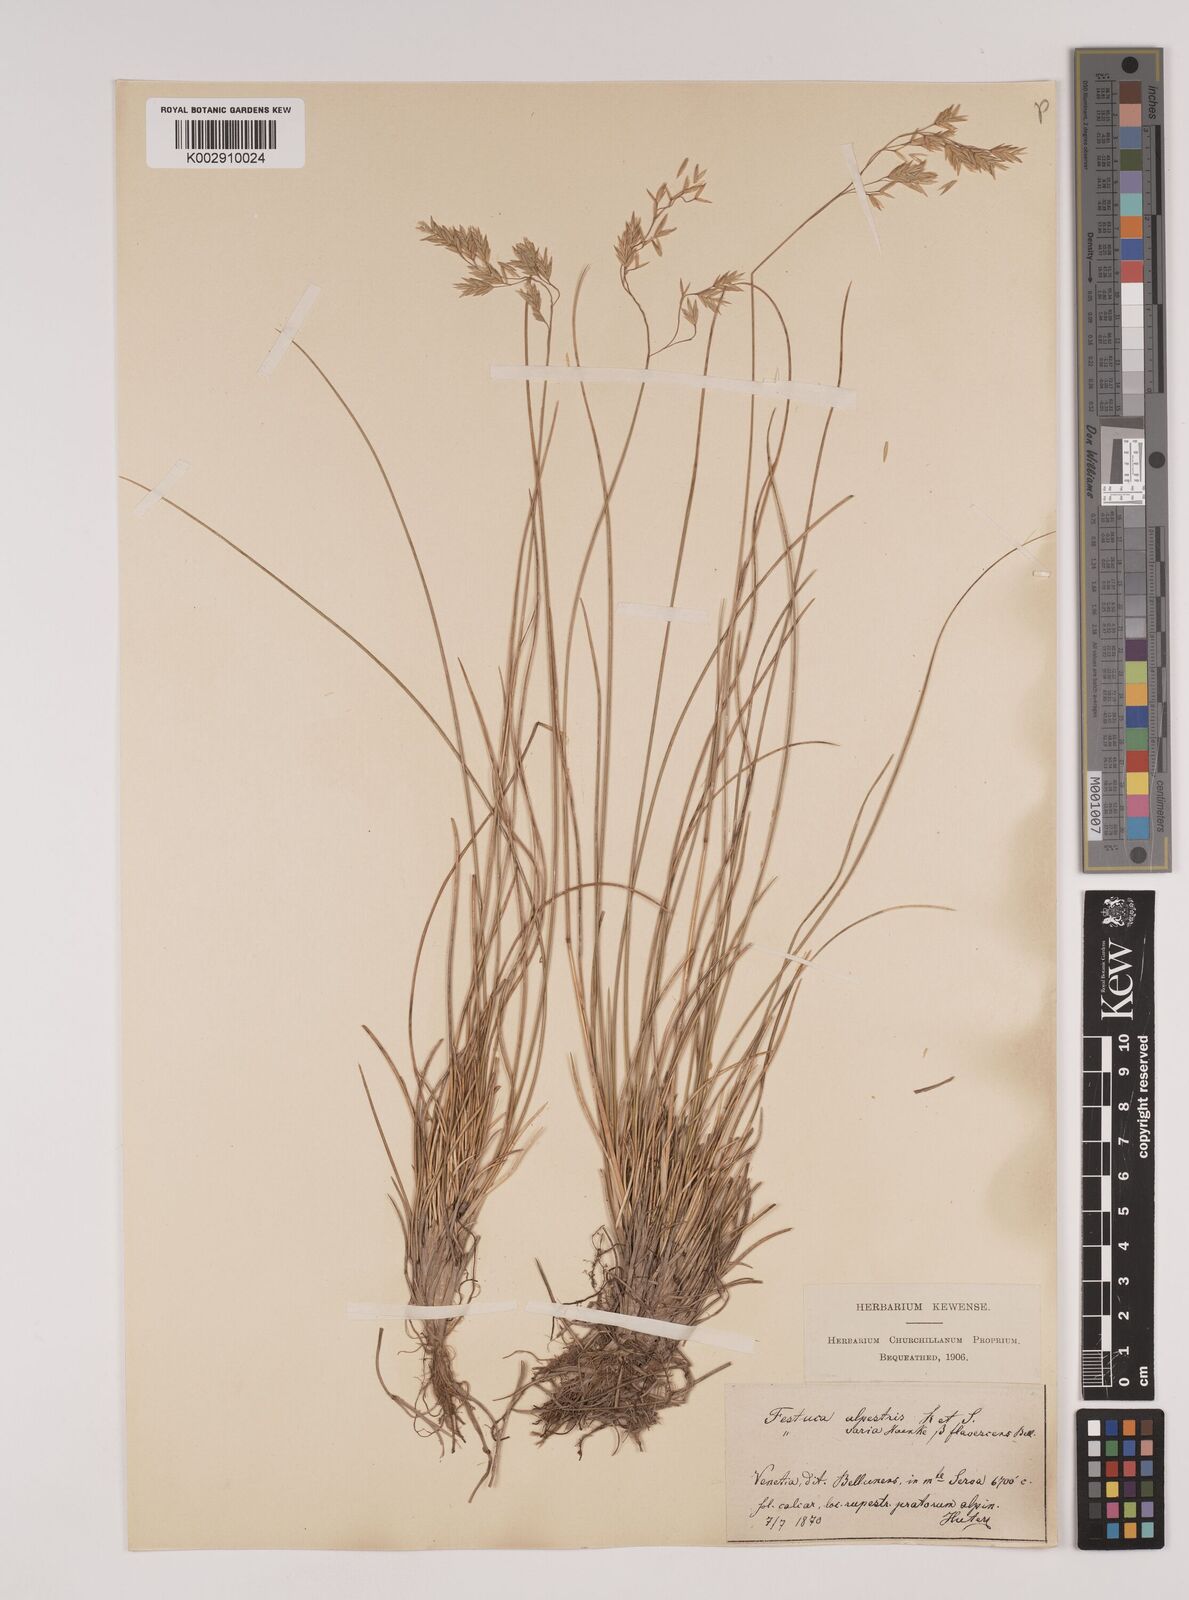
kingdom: Plantae
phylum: Tracheophyta
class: Liliopsida
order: Poales
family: Poaceae
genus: Festuca
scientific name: Festuca alpestris
